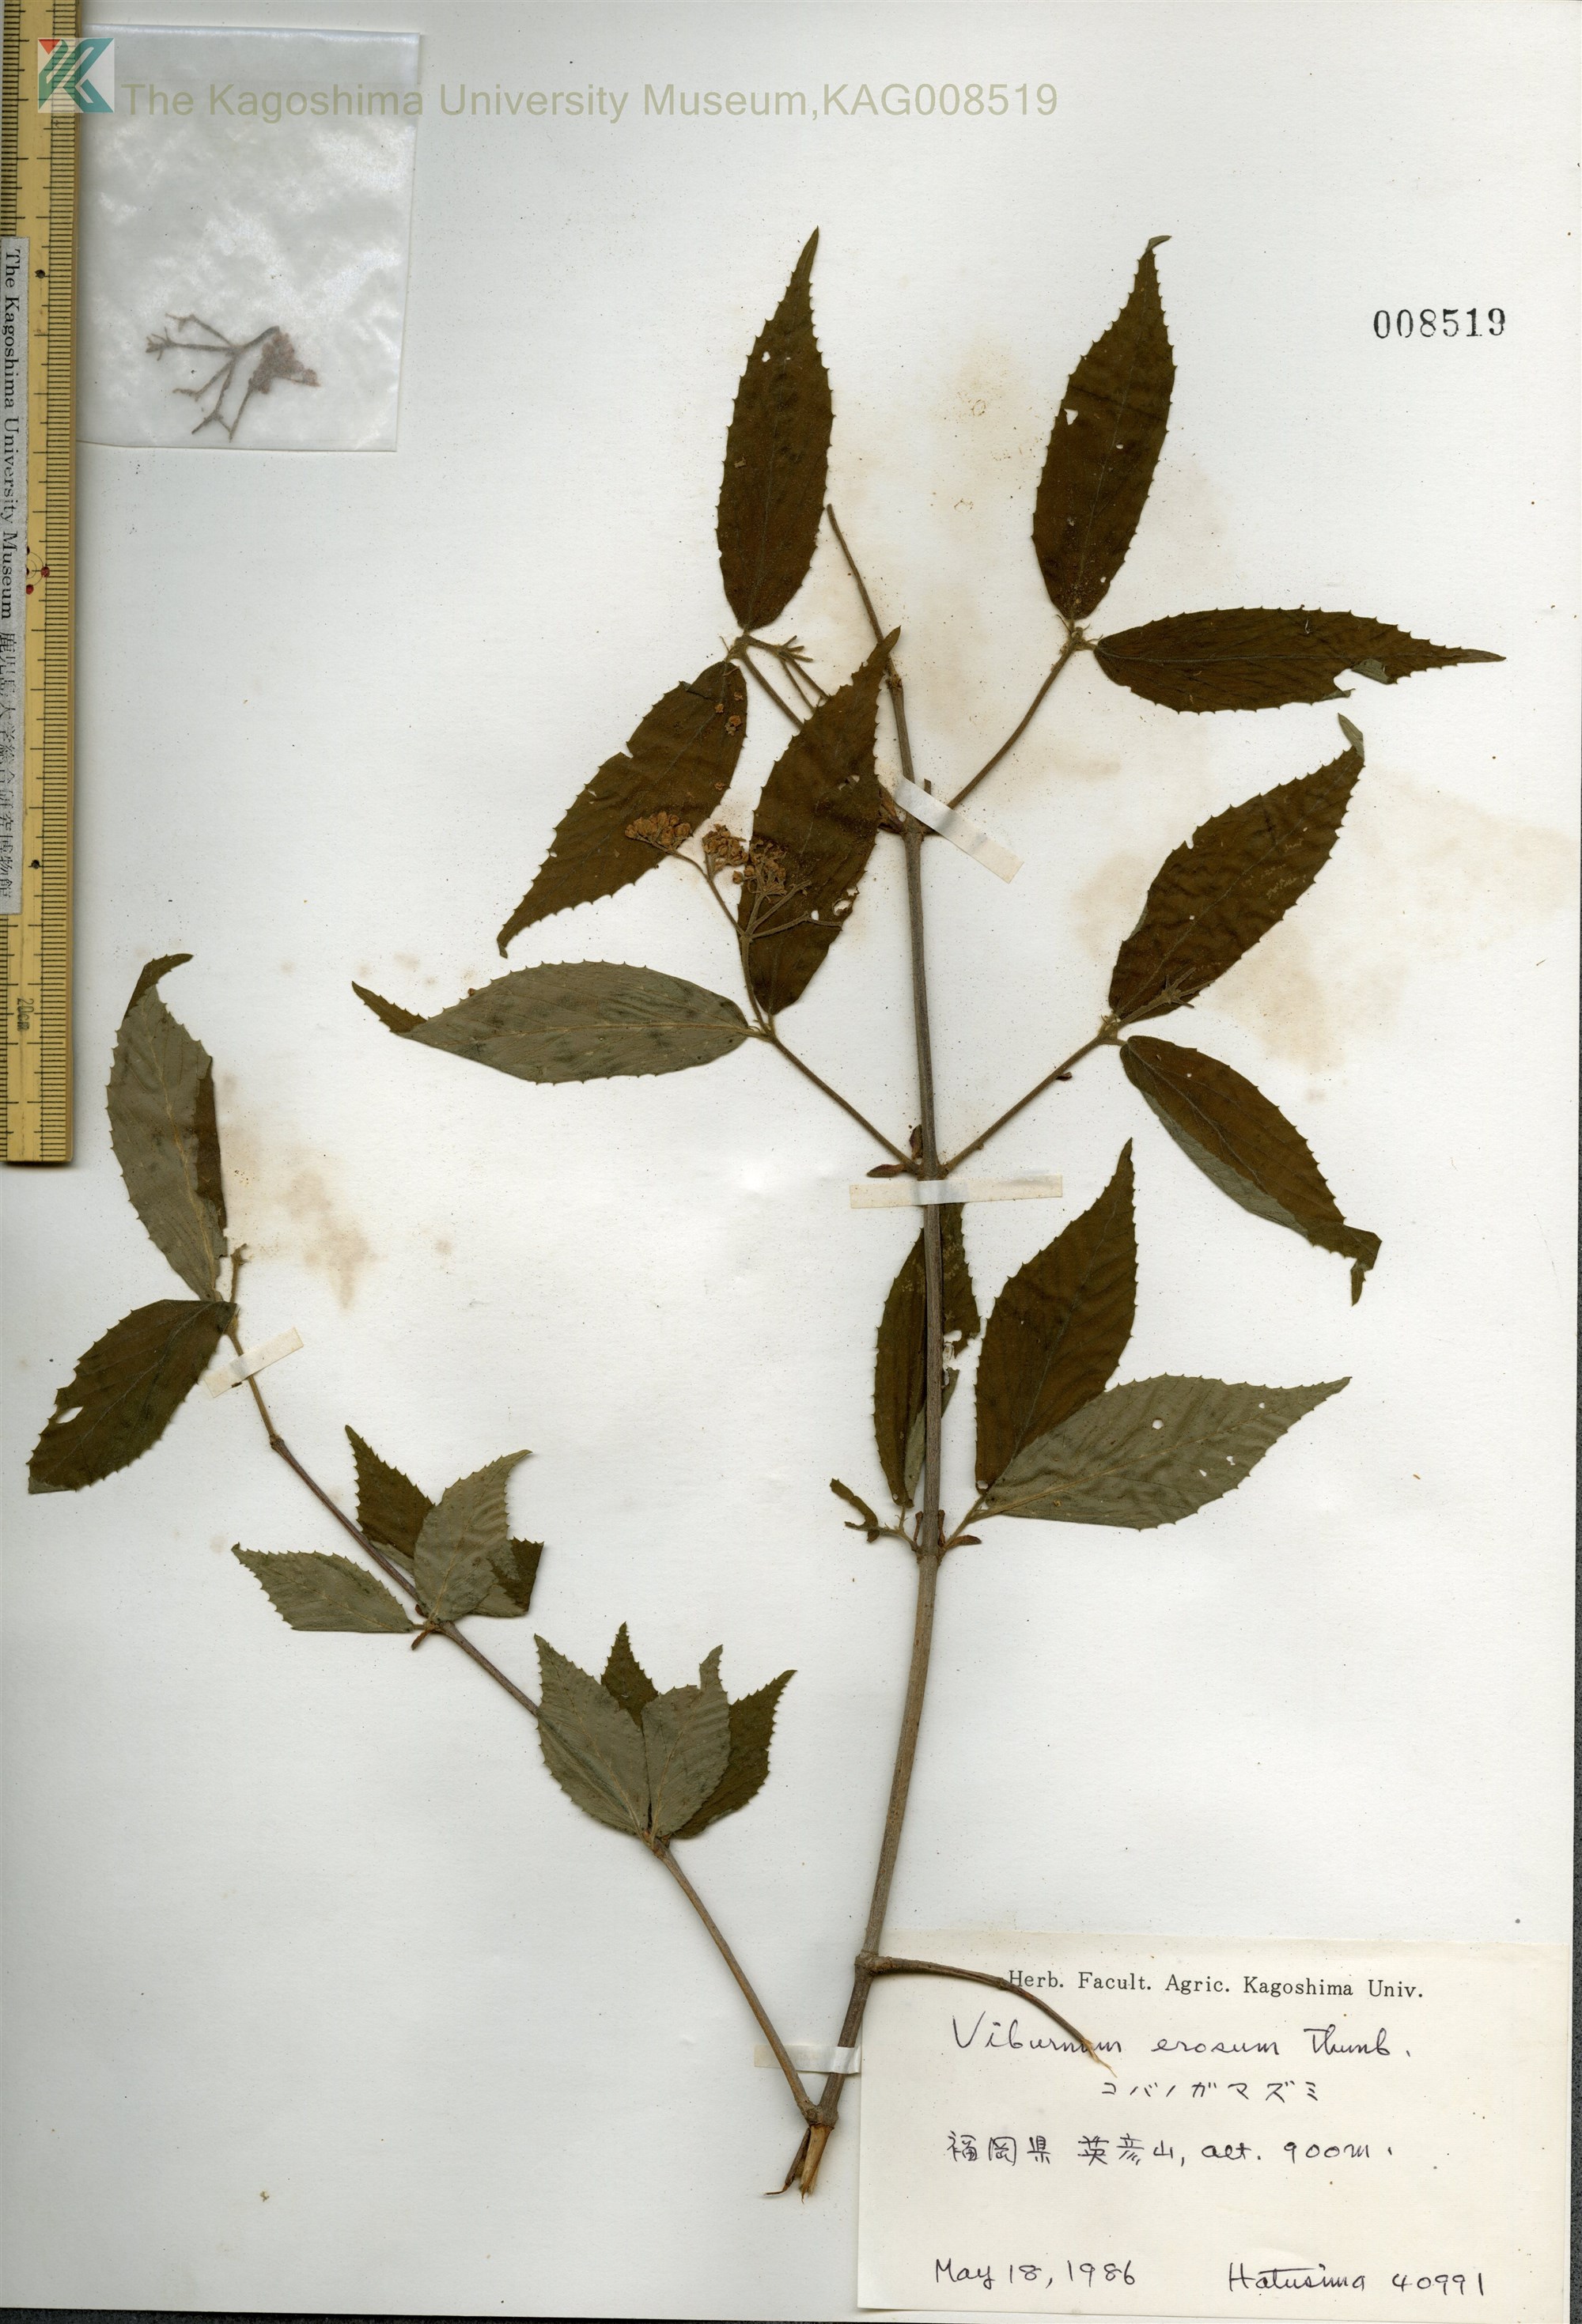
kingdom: Plantae
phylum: Tracheophyta
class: Magnoliopsida
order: Dipsacales
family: Viburnaceae
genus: Viburnum
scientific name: Viburnum erosum
